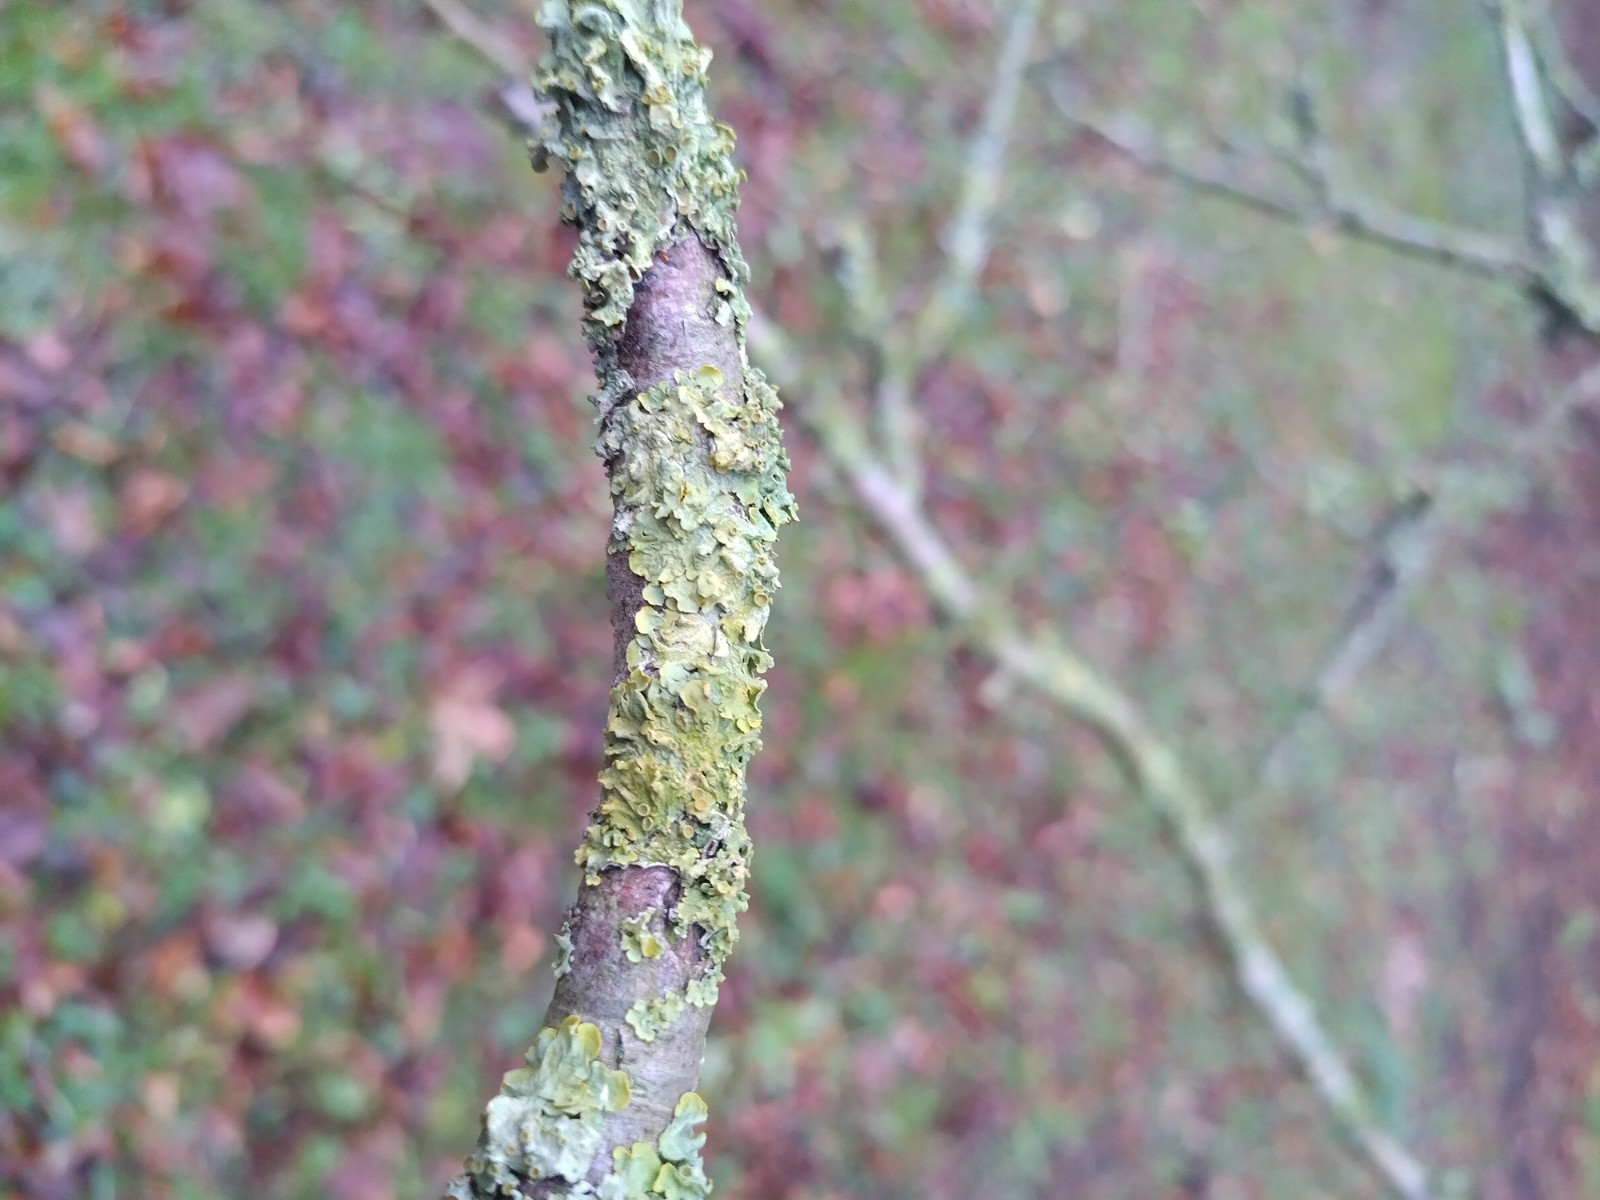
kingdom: Fungi
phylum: Ascomycota
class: Lecanoromycetes
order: Teloschistales
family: Teloschistaceae
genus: Xanthoria
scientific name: Xanthoria parietina
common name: almindelig væggelav
